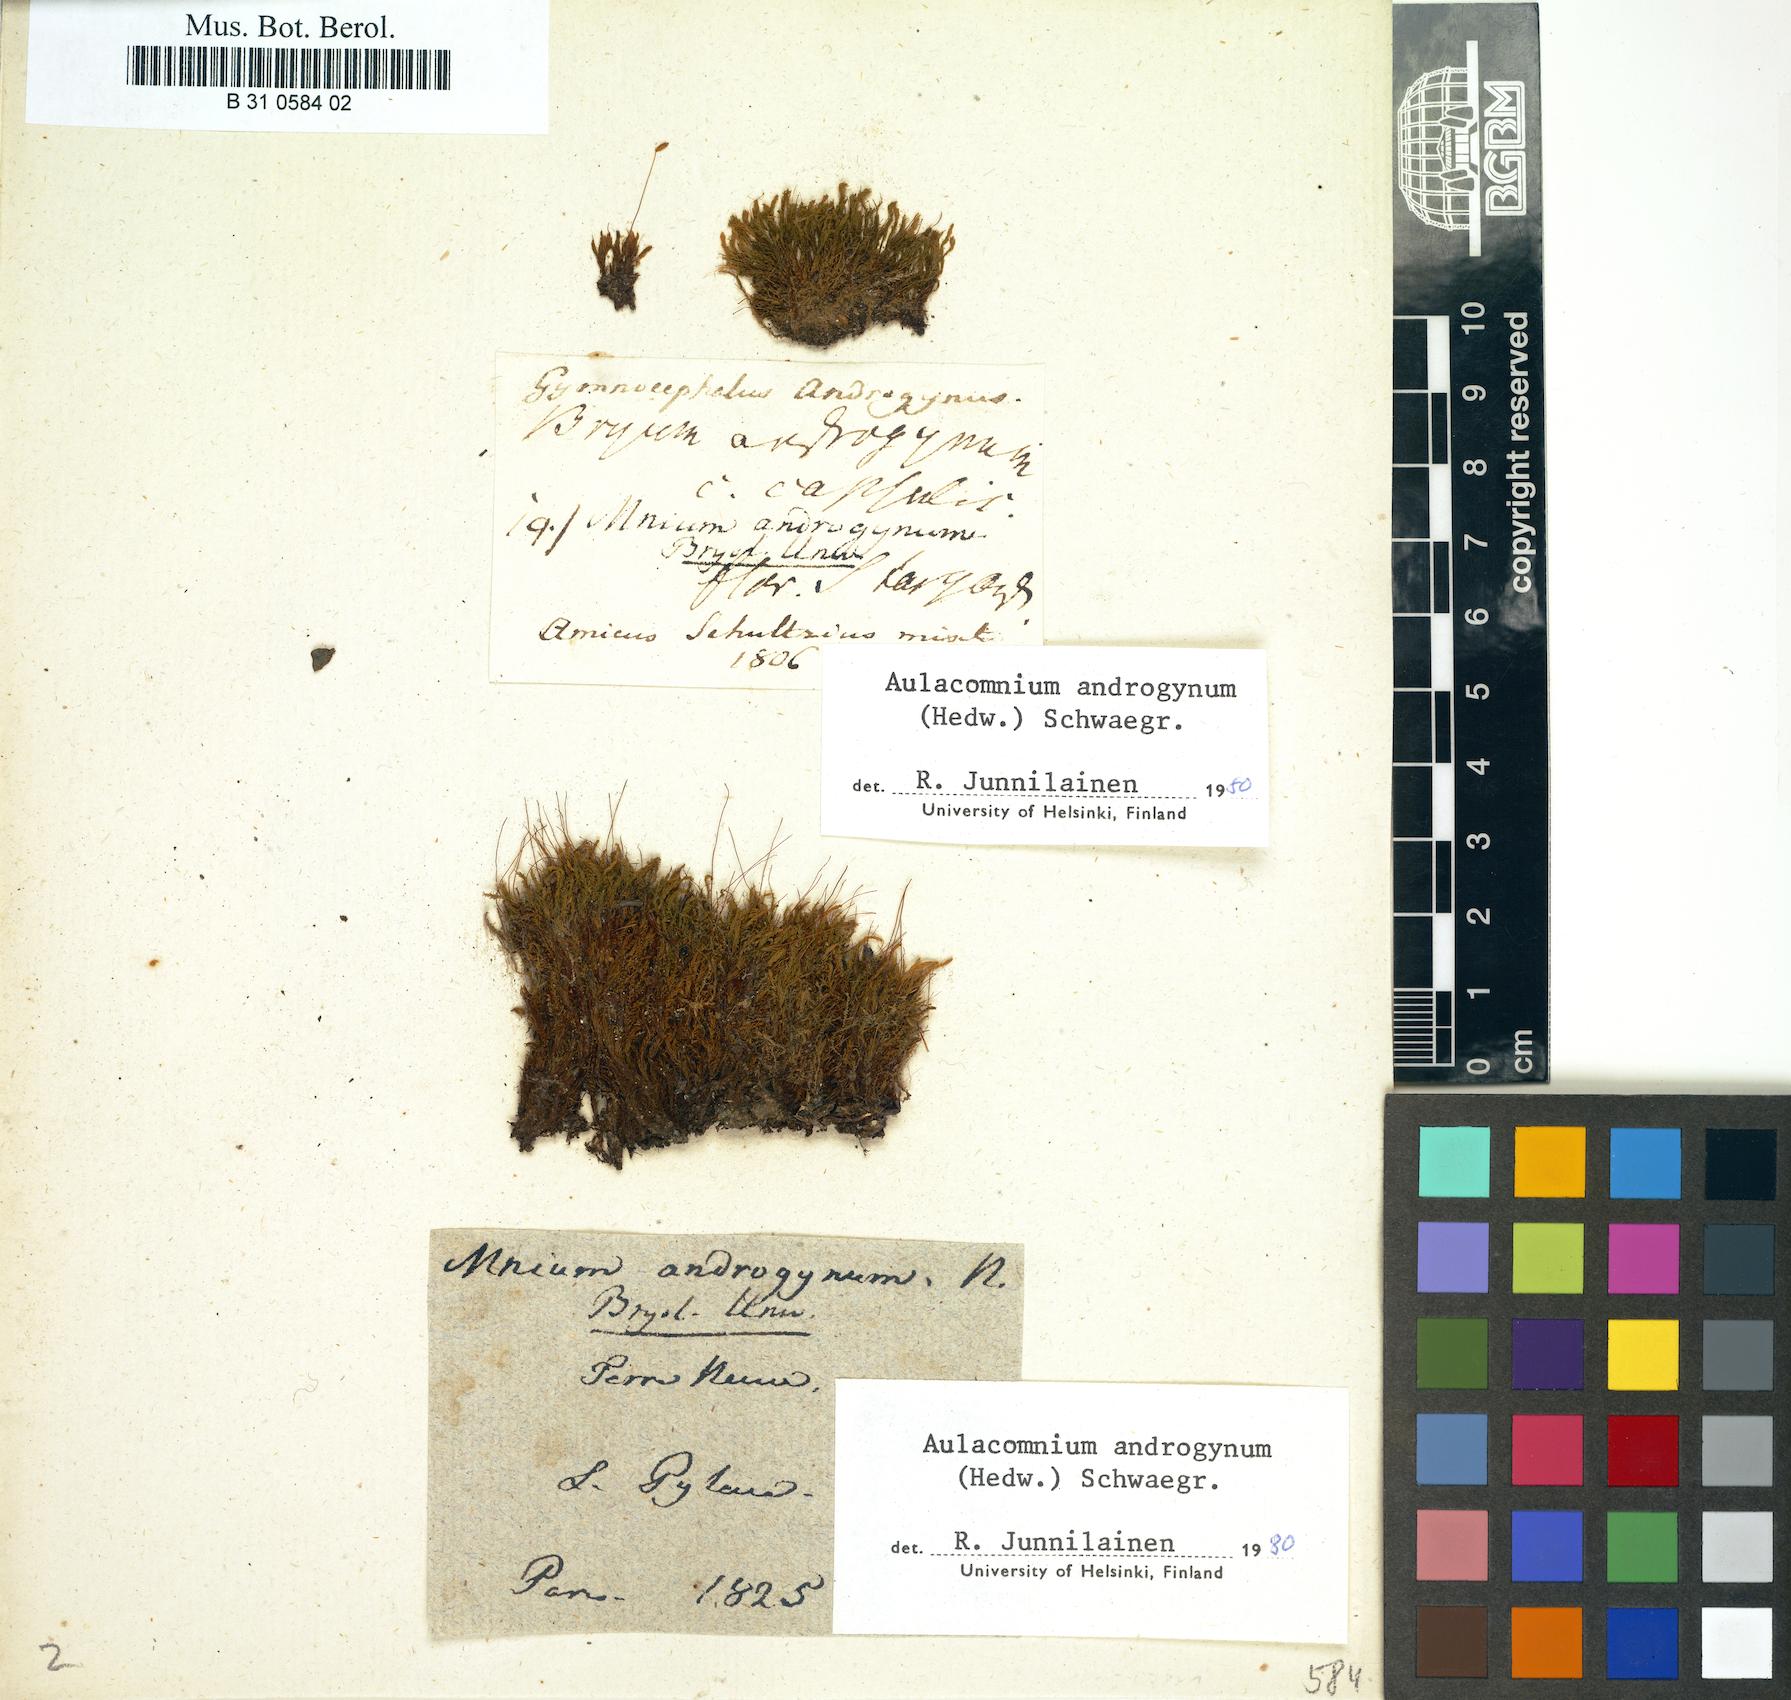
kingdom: Plantae
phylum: Bryophyta
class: Bryopsida
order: Aulacomniales
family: Aulacomniaceae
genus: Aulacomnium
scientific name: Aulacomnium androgynum
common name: Little groove moss
